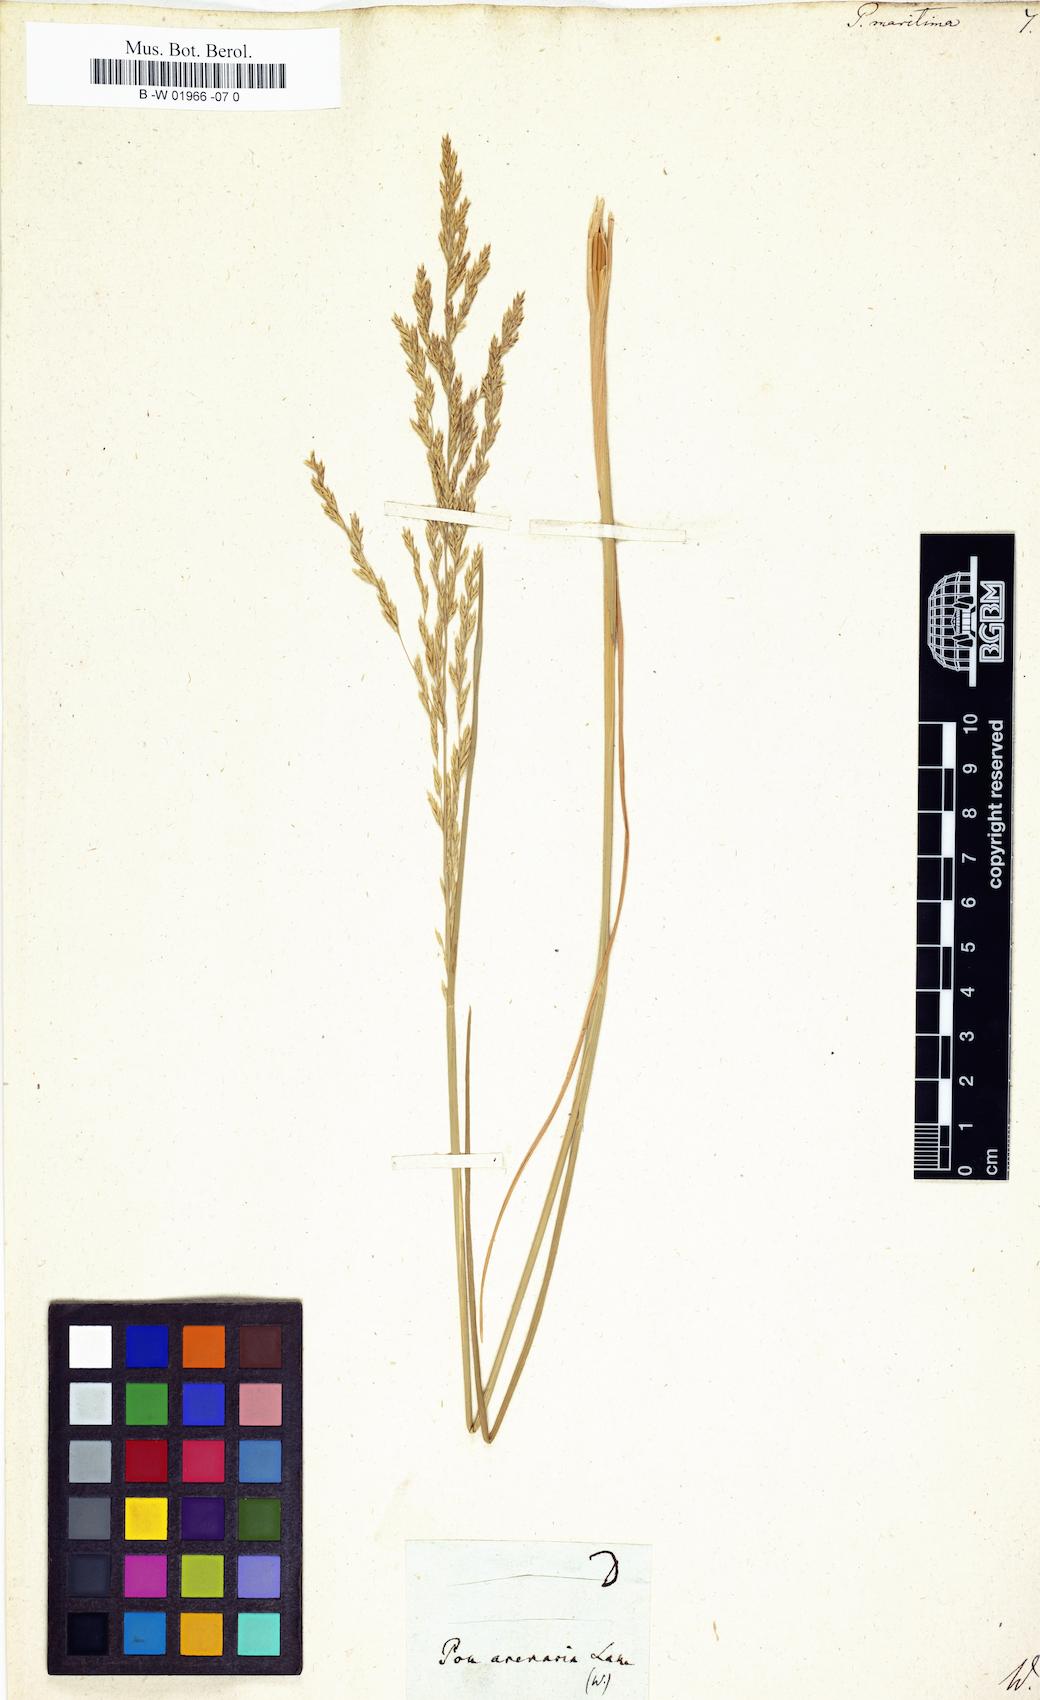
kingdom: Plantae
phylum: Tracheophyta
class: Liliopsida
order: Poales
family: Poaceae
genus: Poa
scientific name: Poa maritima
